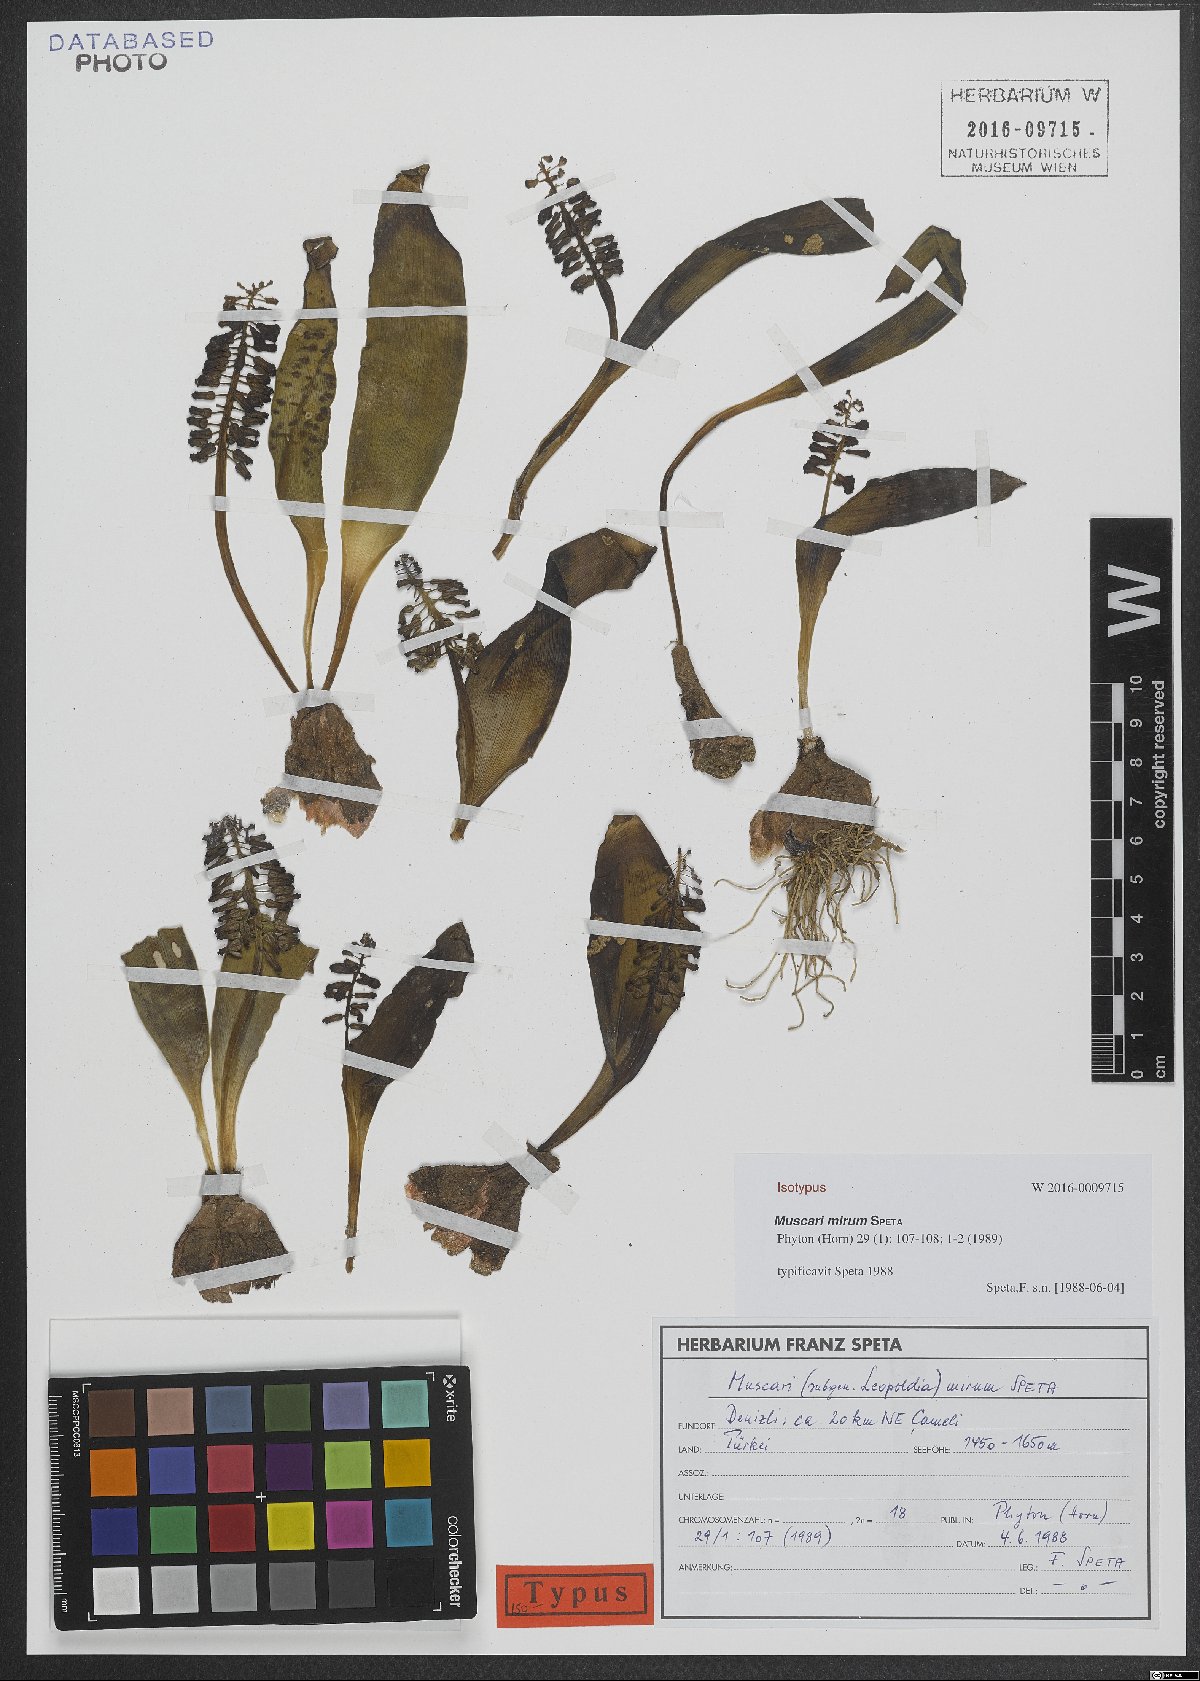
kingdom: Plantae
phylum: Tracheophyta
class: Liliopsida
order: Asparagales
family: Asparagaceae
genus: Muscari
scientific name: Muscari mirum
